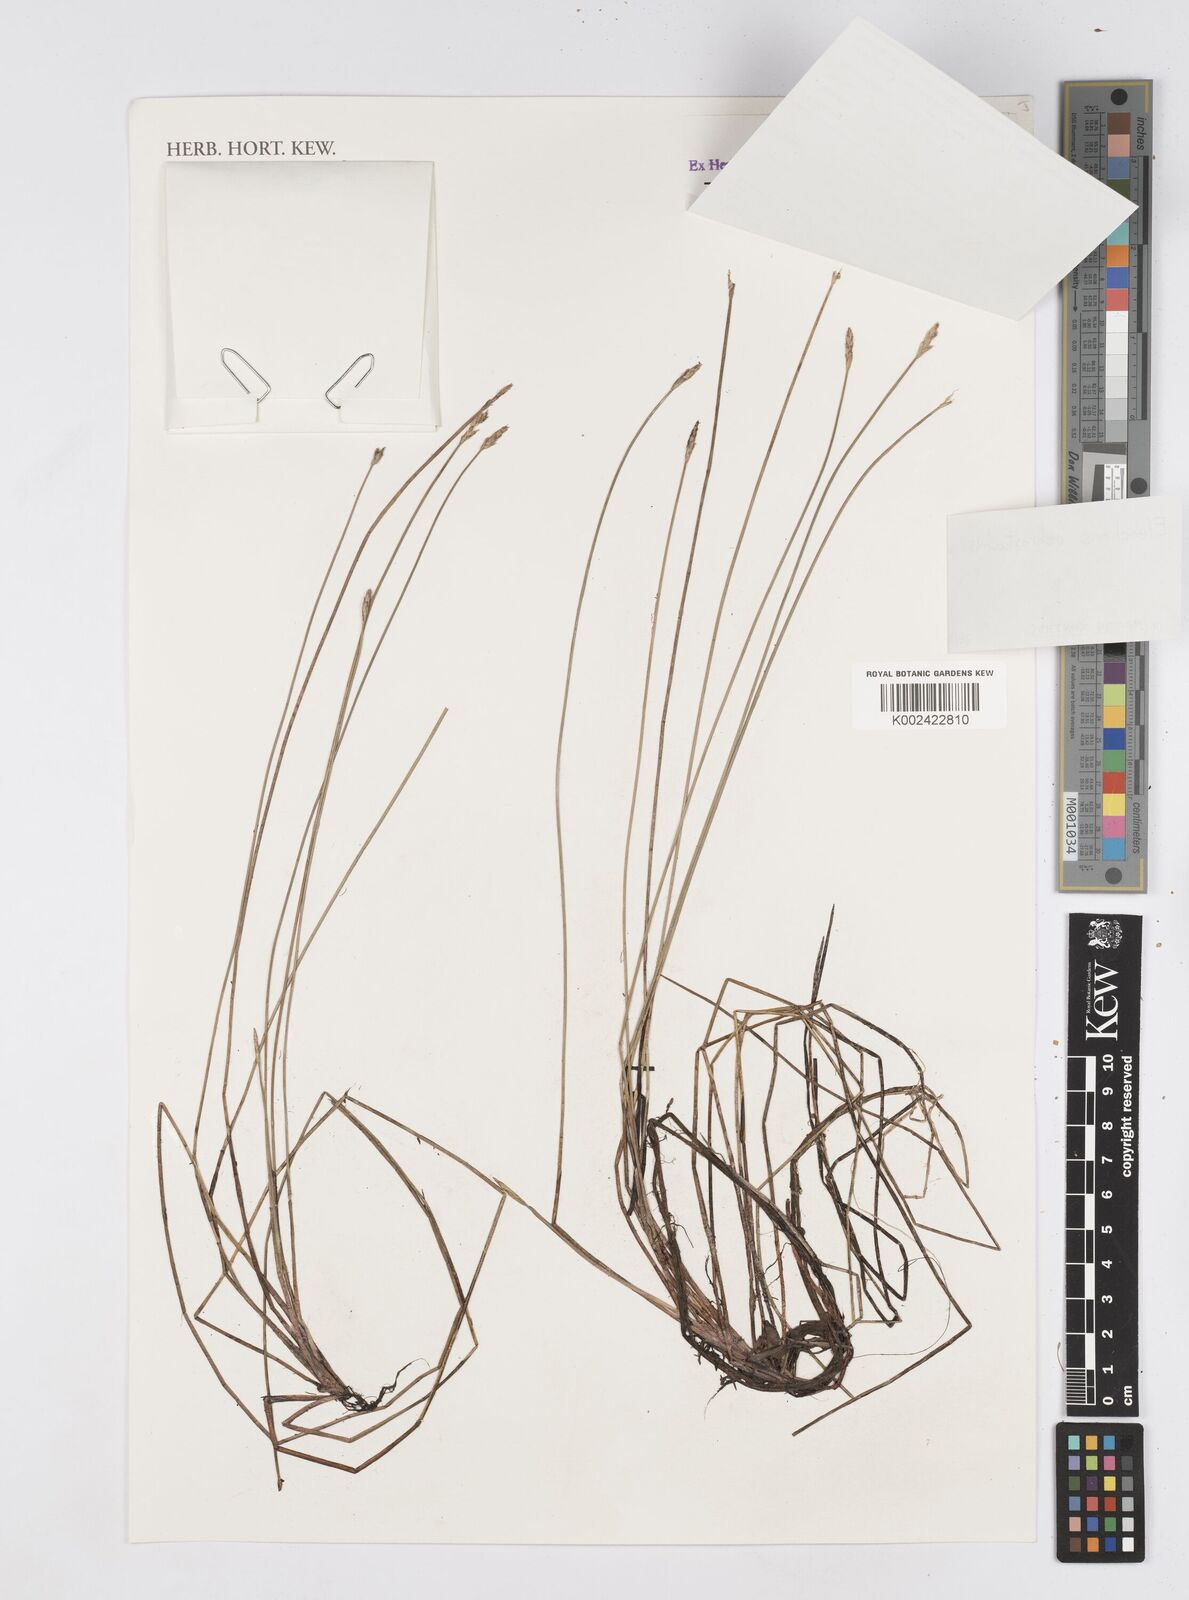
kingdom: Plantae
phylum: Tracheophyta
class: Liliopsida
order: Poales
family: Cyperaceae
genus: Eleocharis
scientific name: Eleocharis ochrostachys
